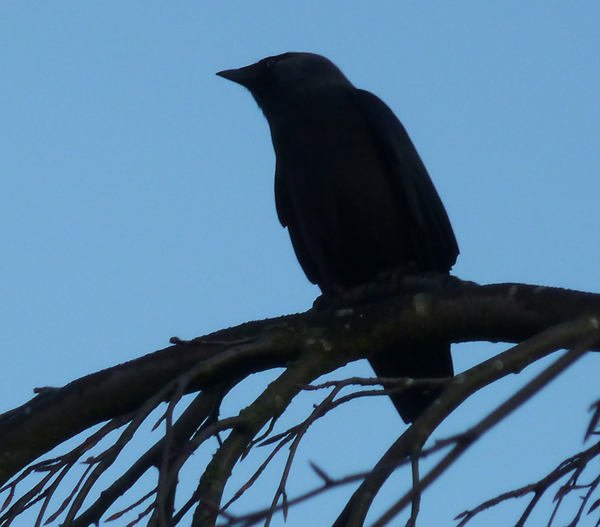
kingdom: Animalia
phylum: Chordata
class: Aves
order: Passeriformes
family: Corvidae
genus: Coloeus
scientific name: Coloeus monedula
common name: Western jackdaw
